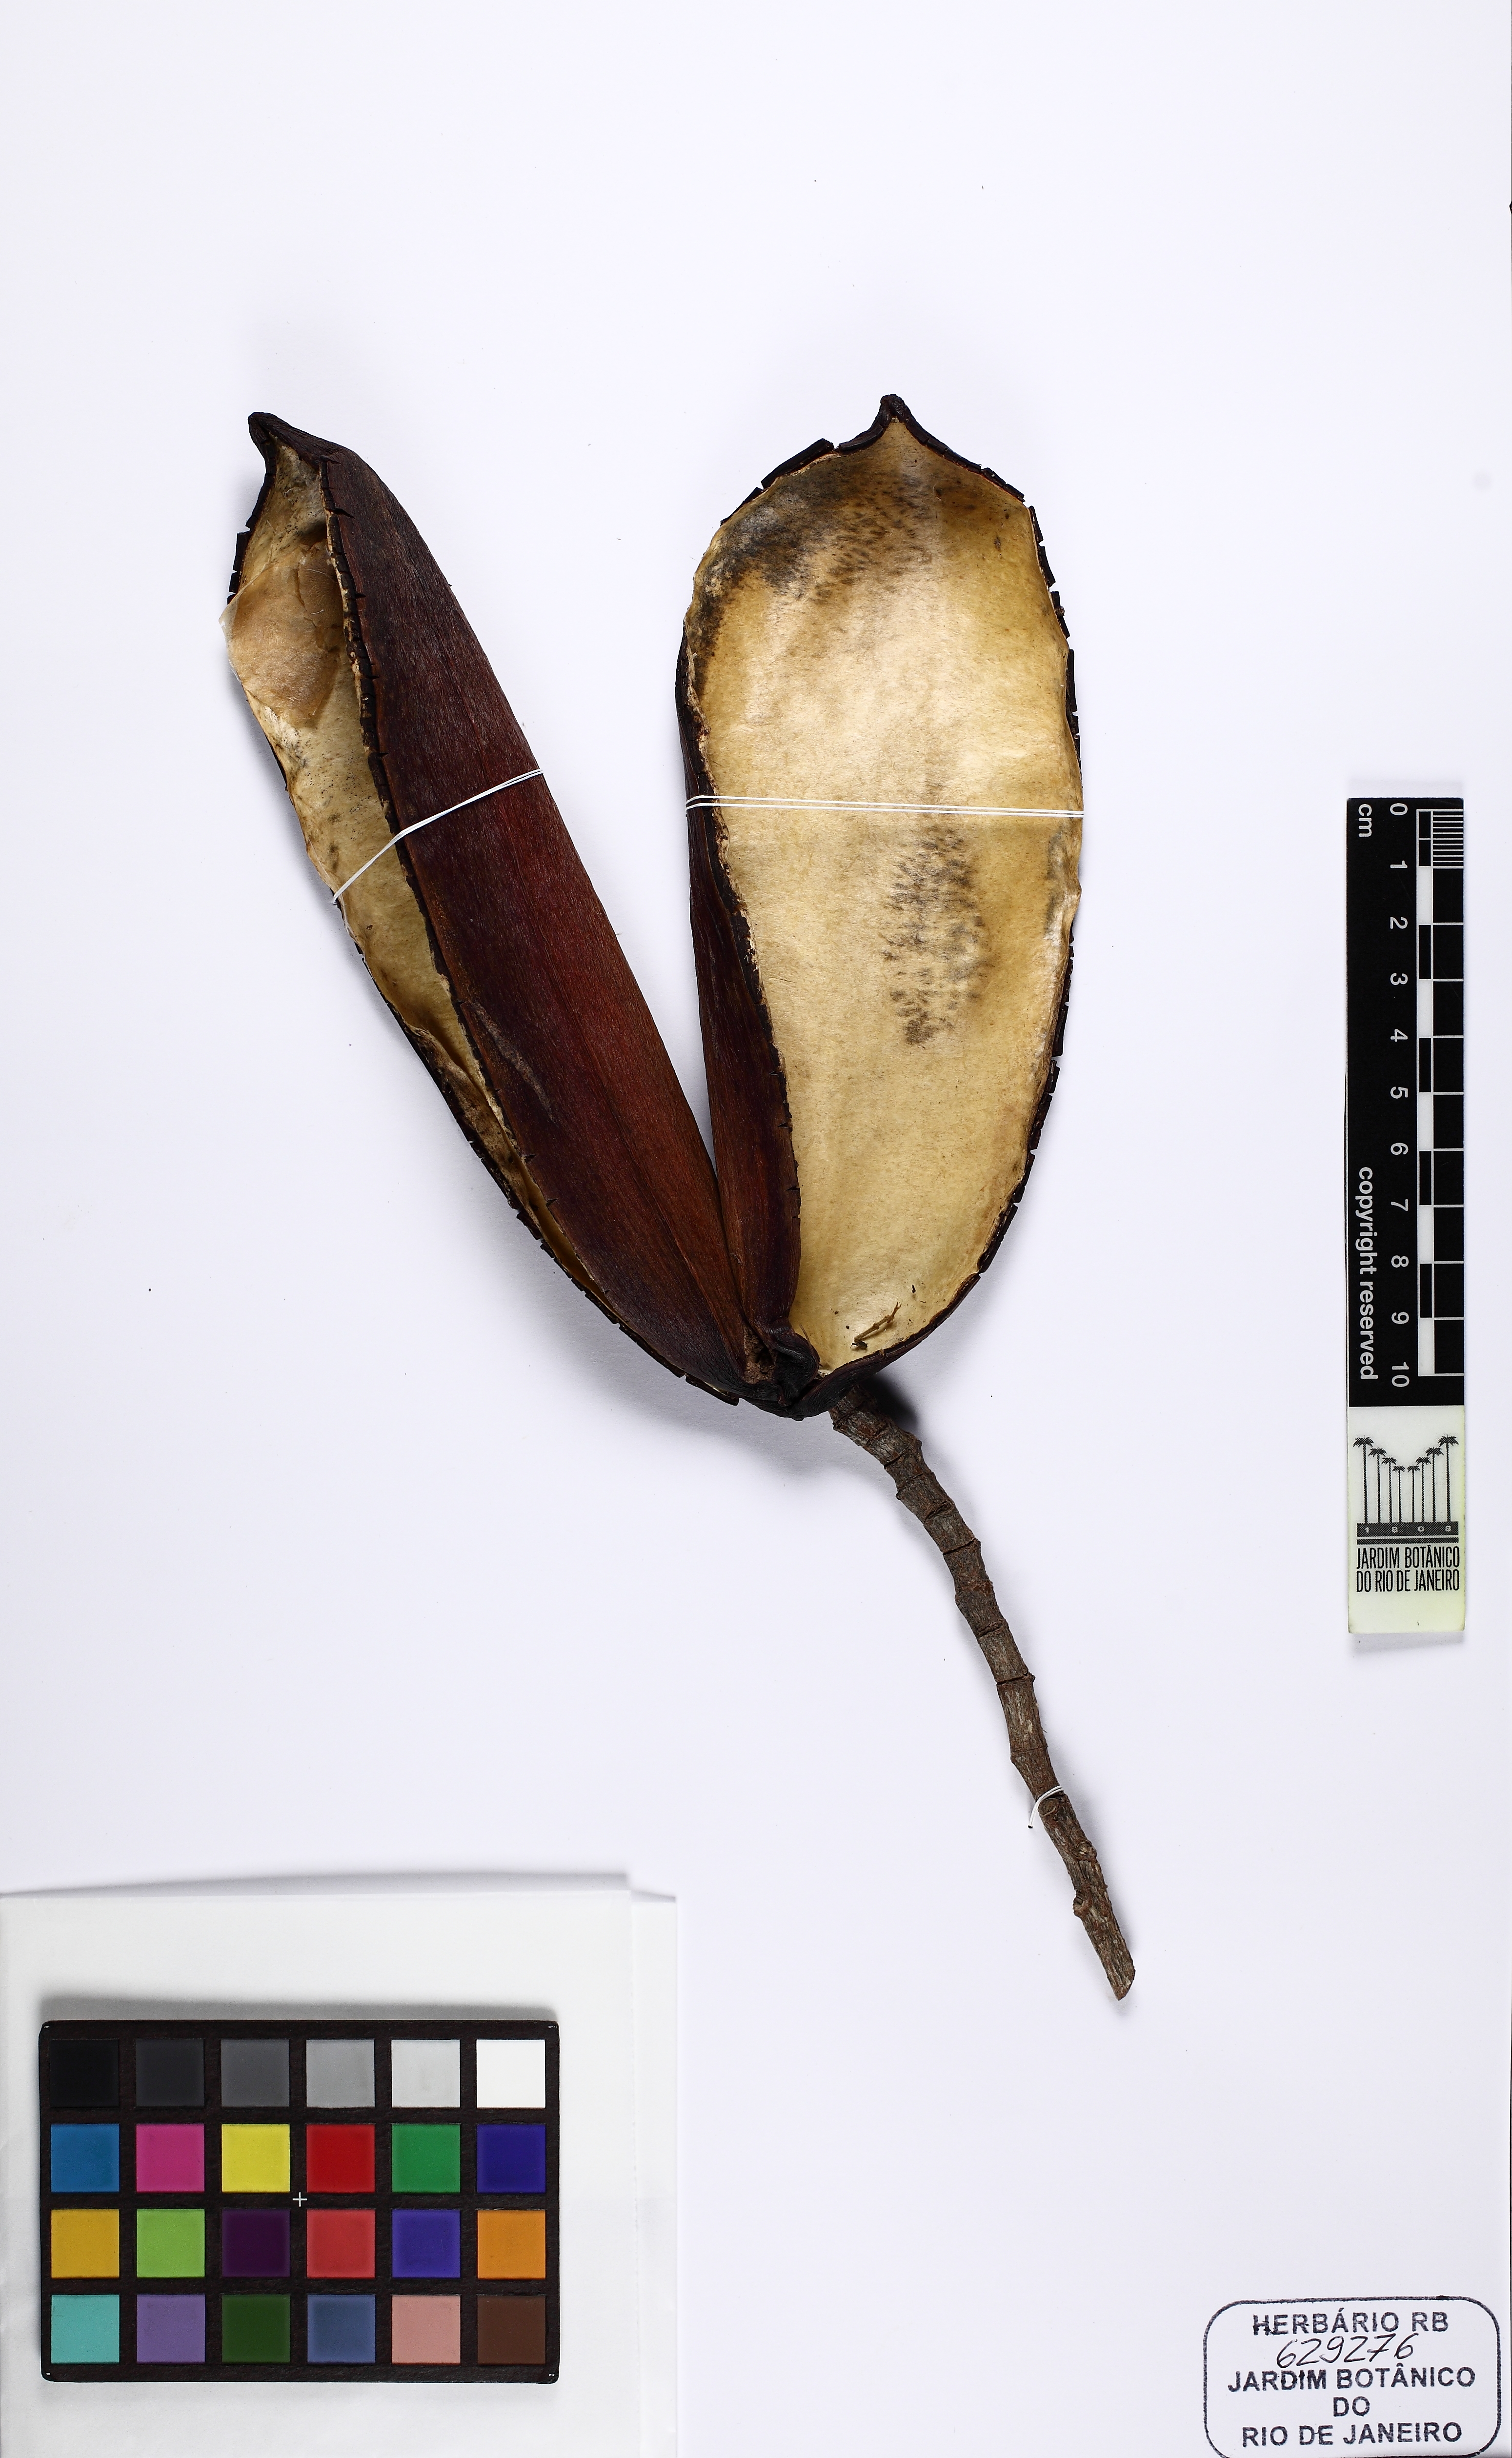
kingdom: Plantae
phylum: Tracheophyta
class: Magnoliopsida
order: Gentianales
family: Apocynaceae
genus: Himatanthus
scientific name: Himatanthus
